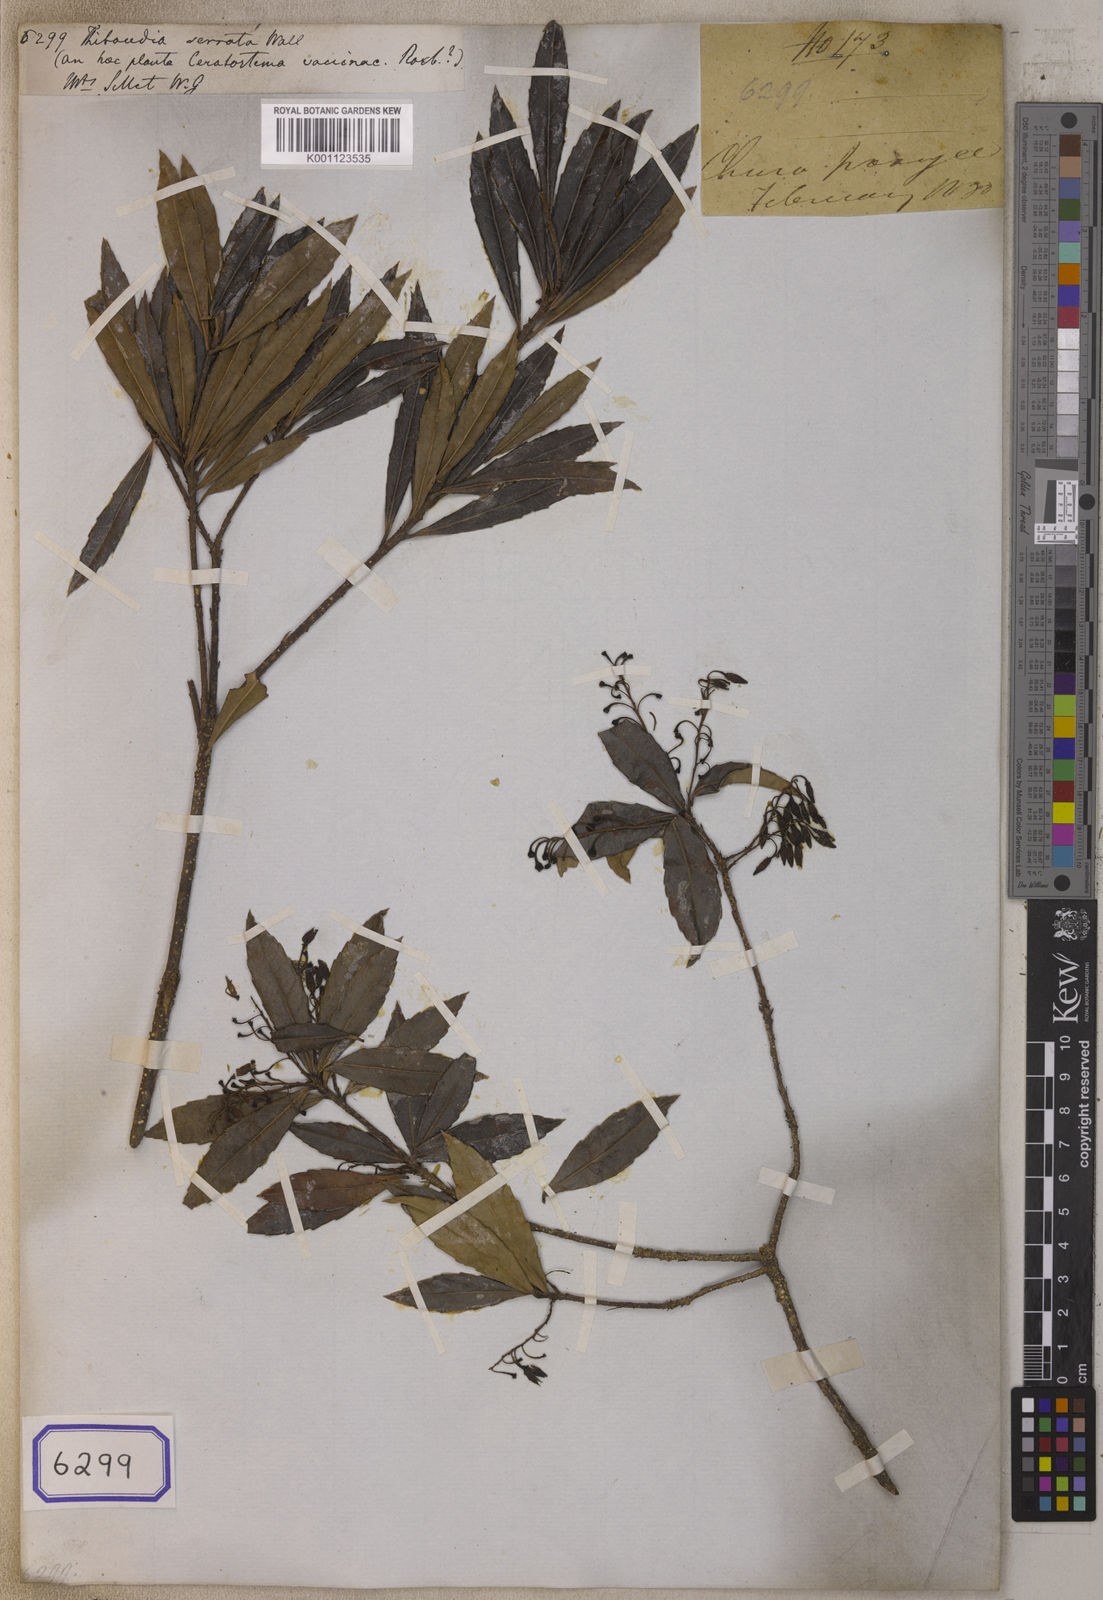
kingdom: Plantae
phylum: Tracheophyta
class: Magnoliopsida
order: Ericales
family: Ericaceae
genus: Vaccinium
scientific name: Vaccinium vacciniaceum
